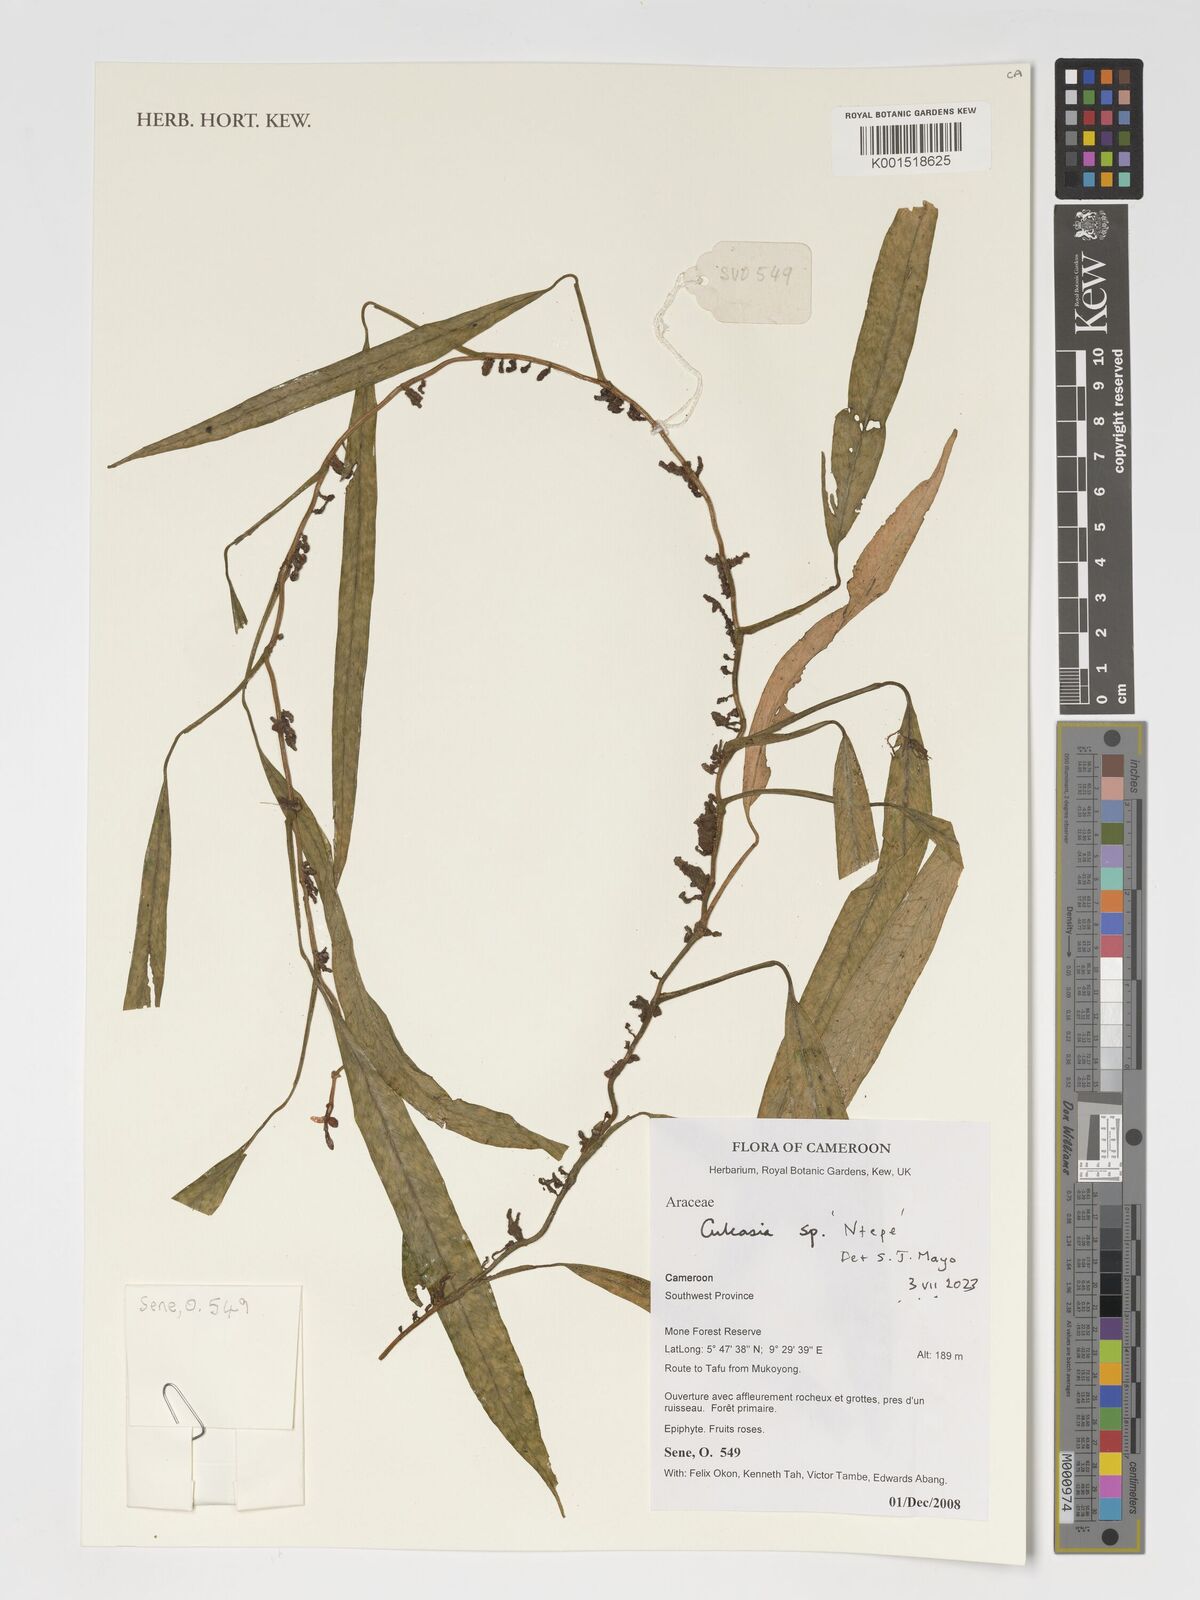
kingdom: Plantae
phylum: Tracheophyta
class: Liliopsida
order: Alismatales
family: Araceae
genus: Culcasia
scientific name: Culcasia
